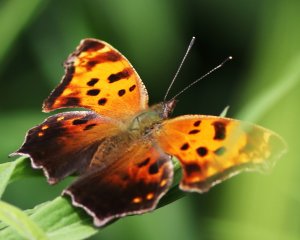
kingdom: Animalia
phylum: Arthropoda
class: Insecta
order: Lepidoptera
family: Nymphalidae
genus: Polygonia
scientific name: Polygonia comma
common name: Eastern Comma
